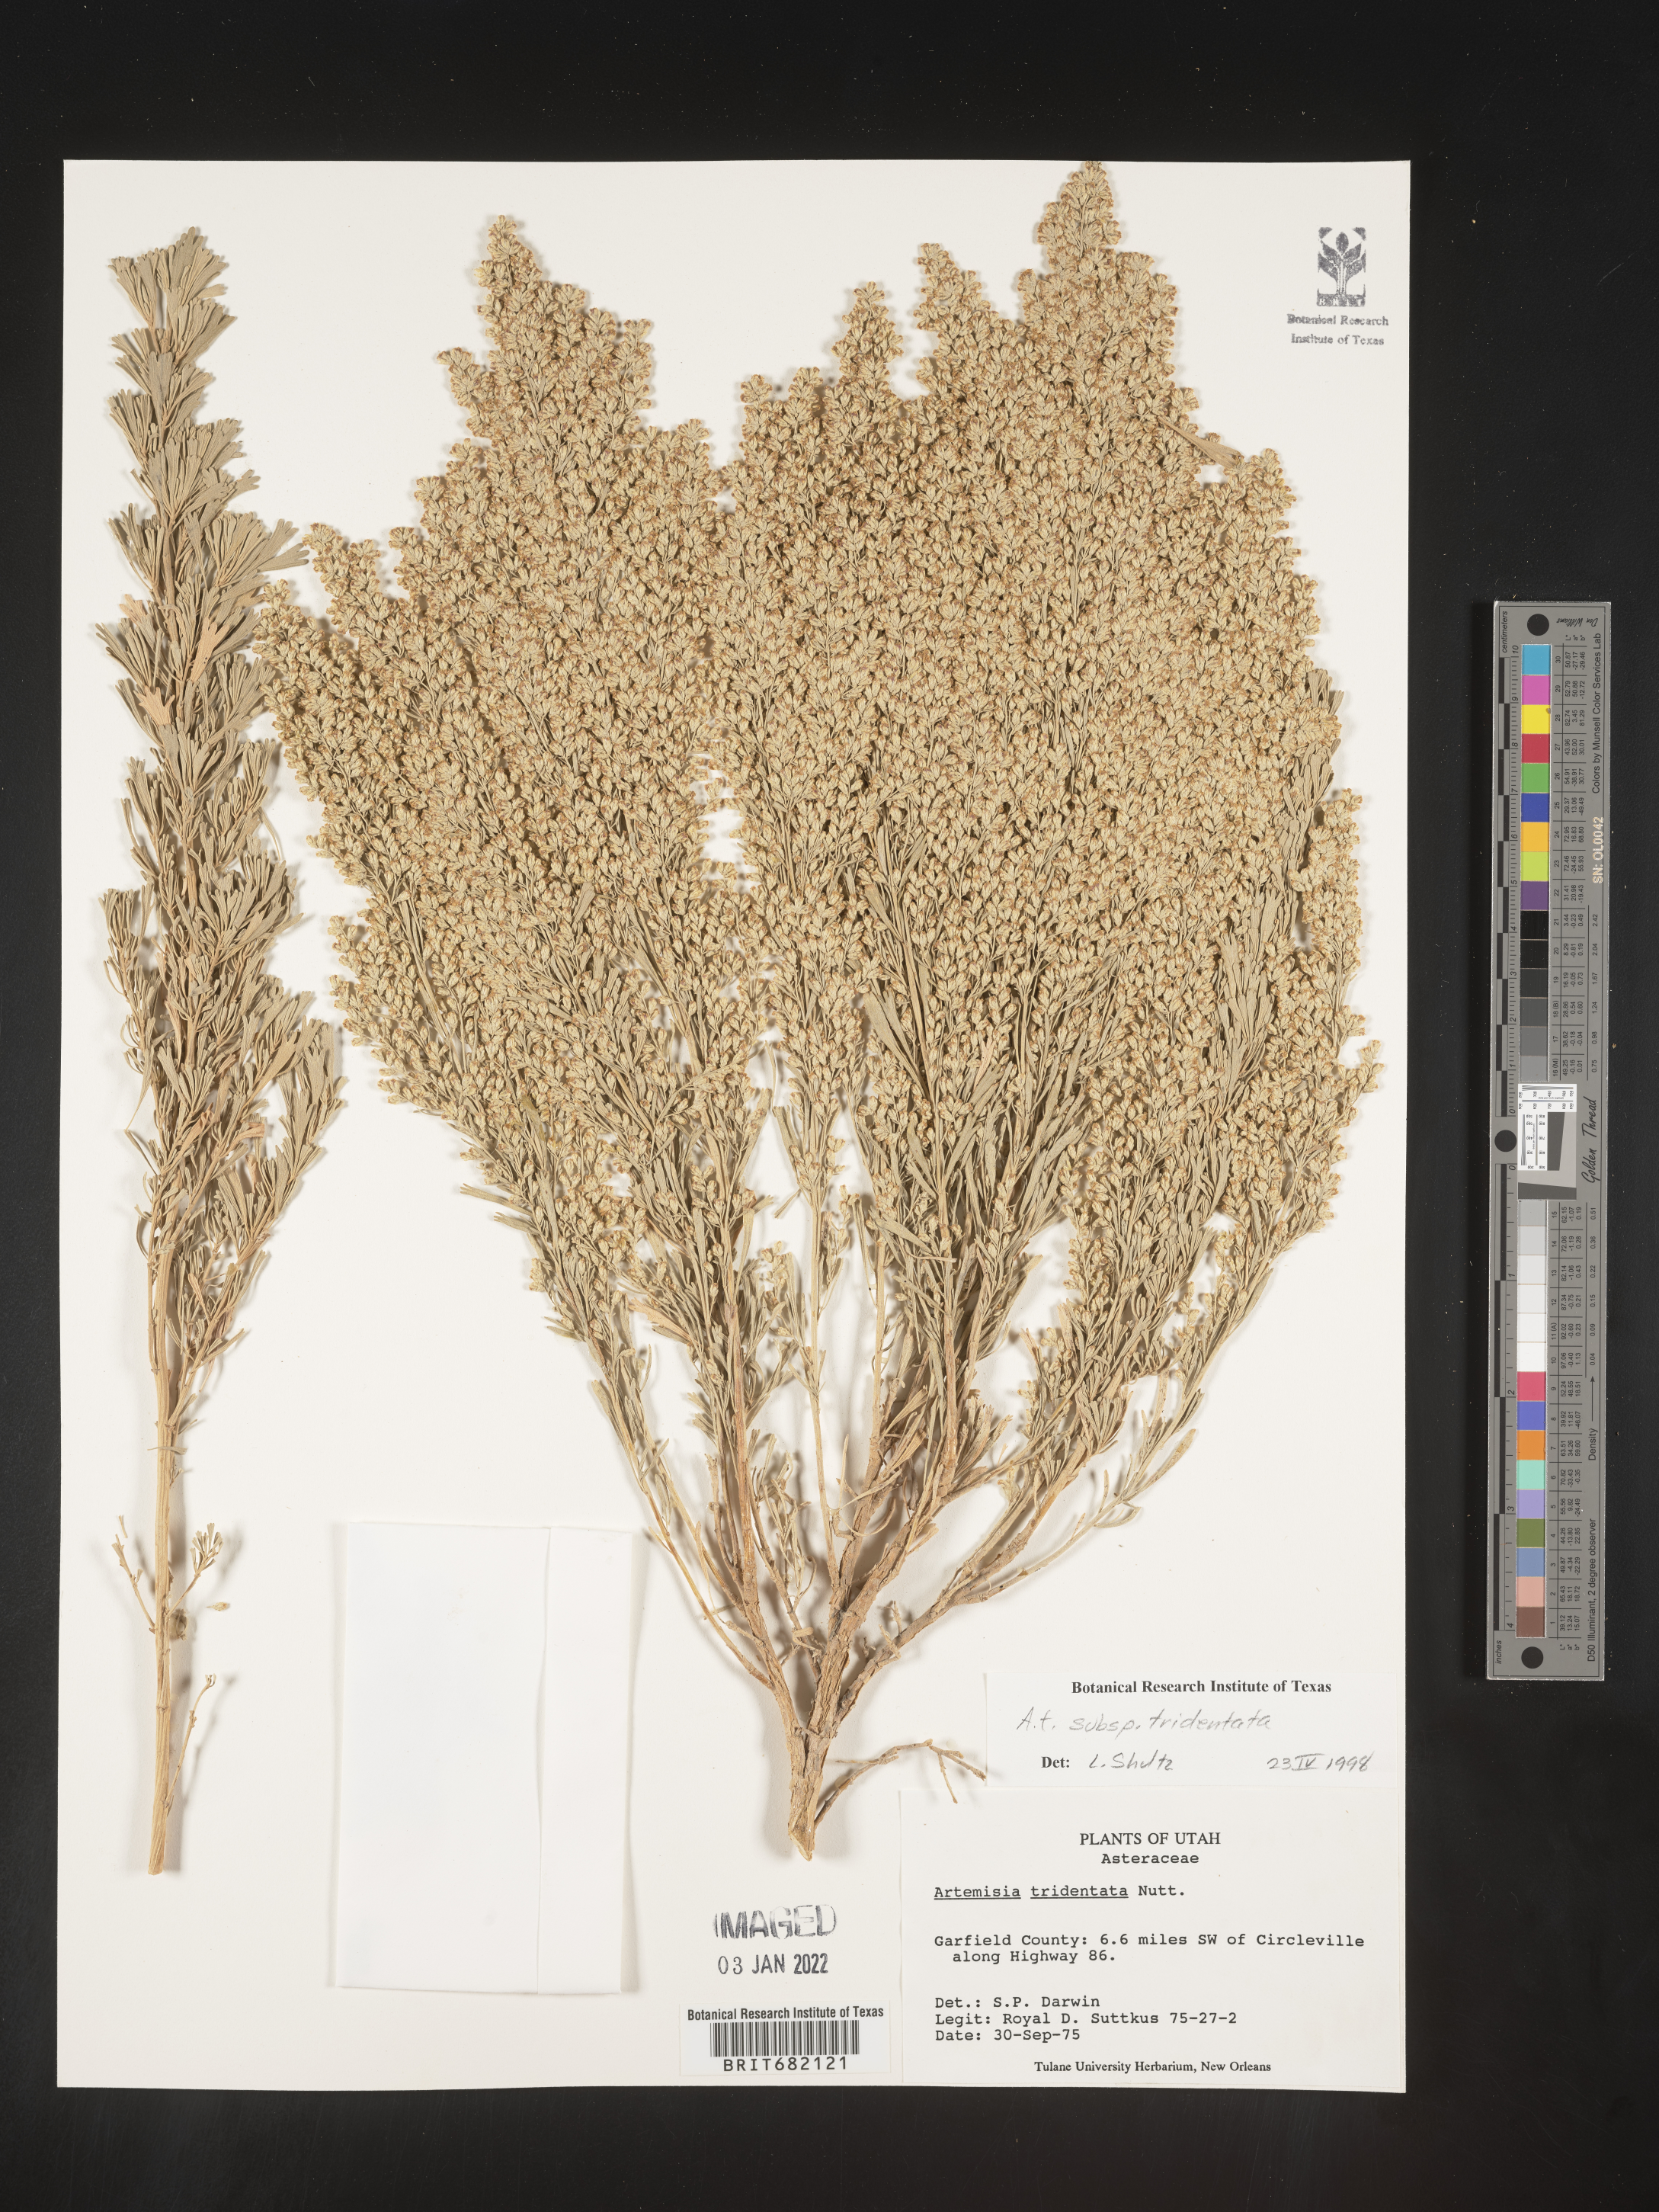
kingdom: Plantae
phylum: Tracheophyta
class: Magnoliopsida
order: Asterales
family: Asteraceae
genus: Artemisia
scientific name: Artemisia tridentata
